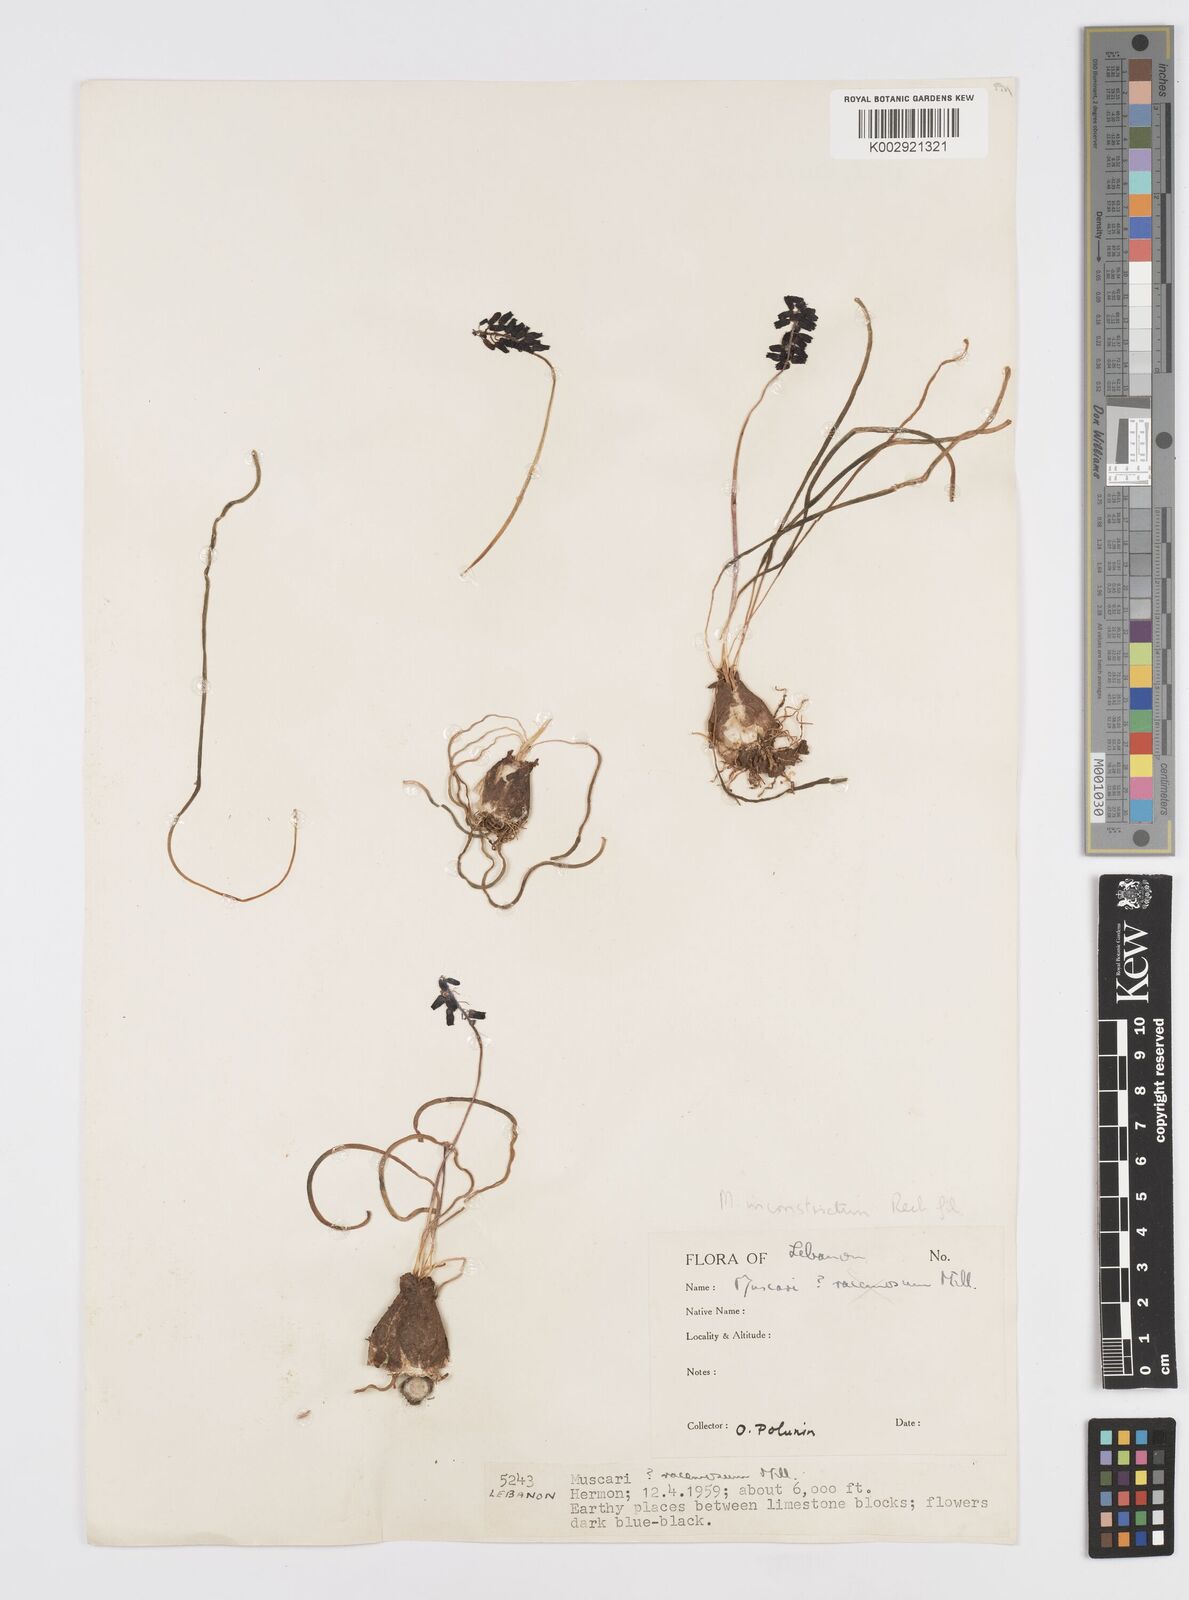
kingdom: Plantae
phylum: Tracheophyta
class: Liliopsida
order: Asparagales
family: Asparagaceae
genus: Muscari
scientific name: Muscari inconstrictum
